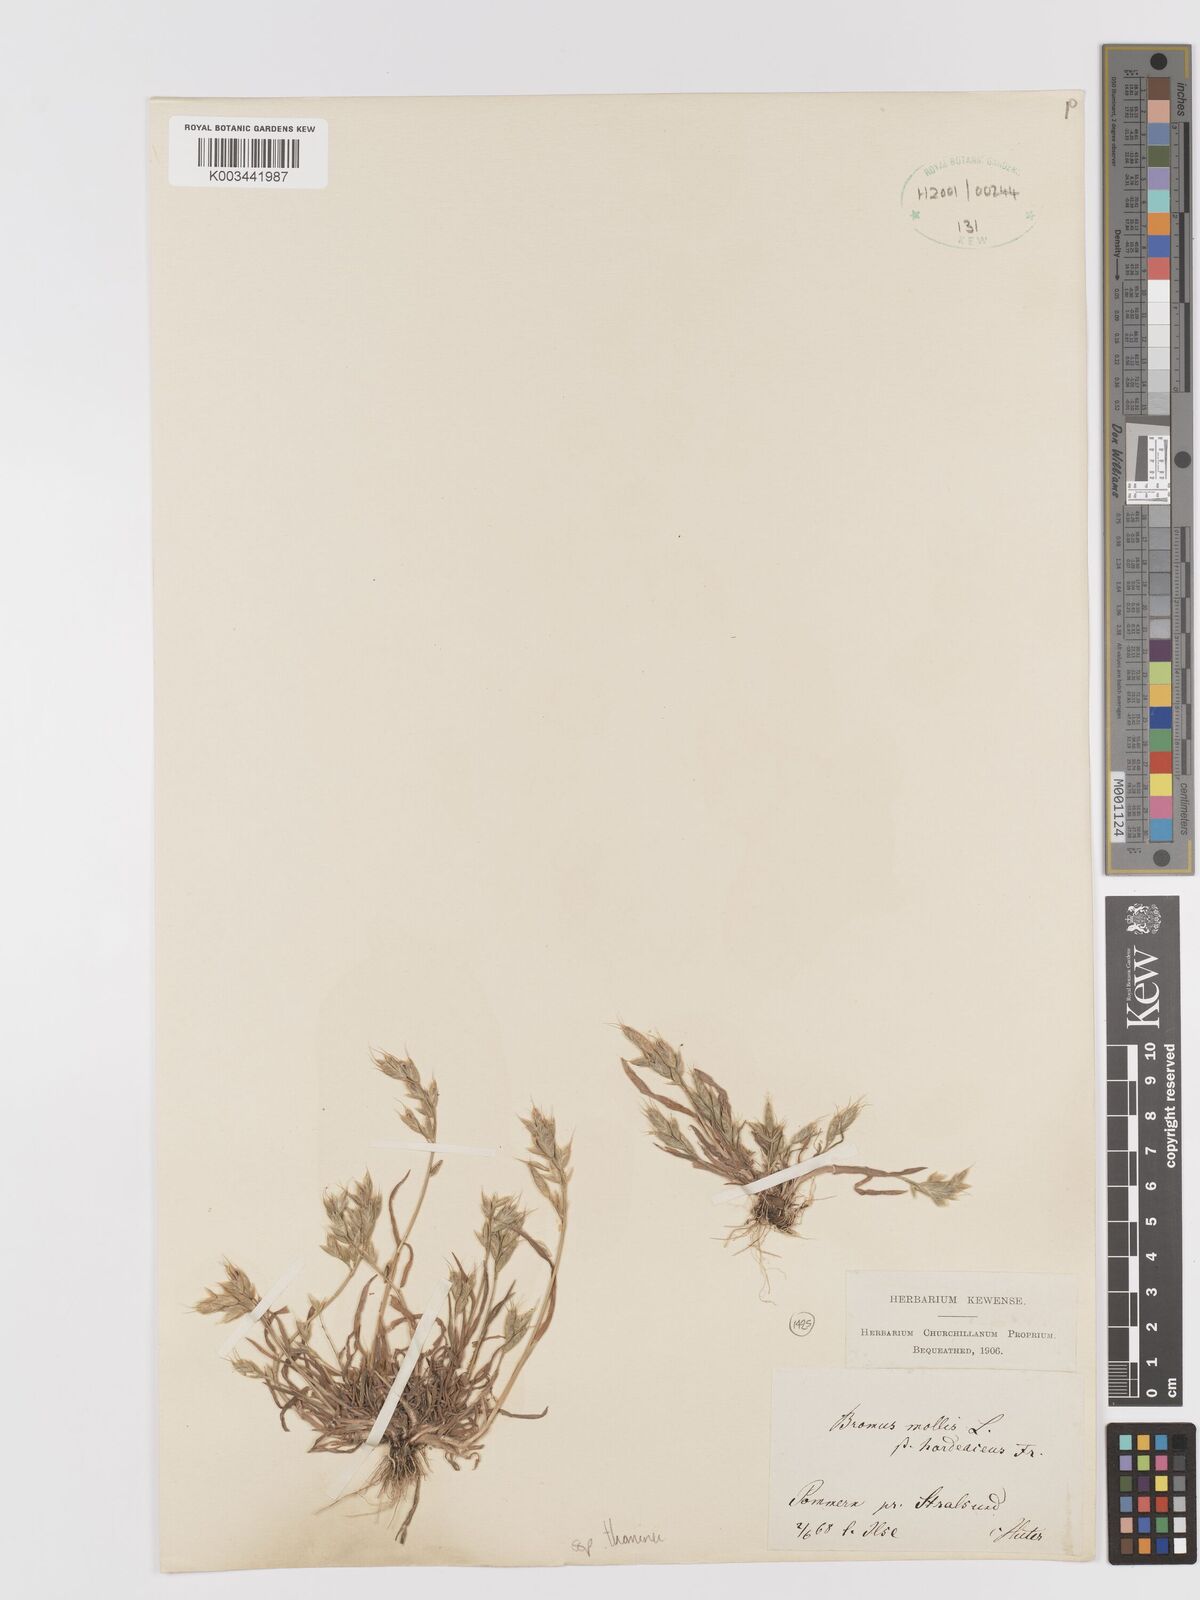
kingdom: Plantae
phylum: Tracheophyta
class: Liliopsida
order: Poales
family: Poaceae
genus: Bromus
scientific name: Bromus hordeaceus
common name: Soft brome
